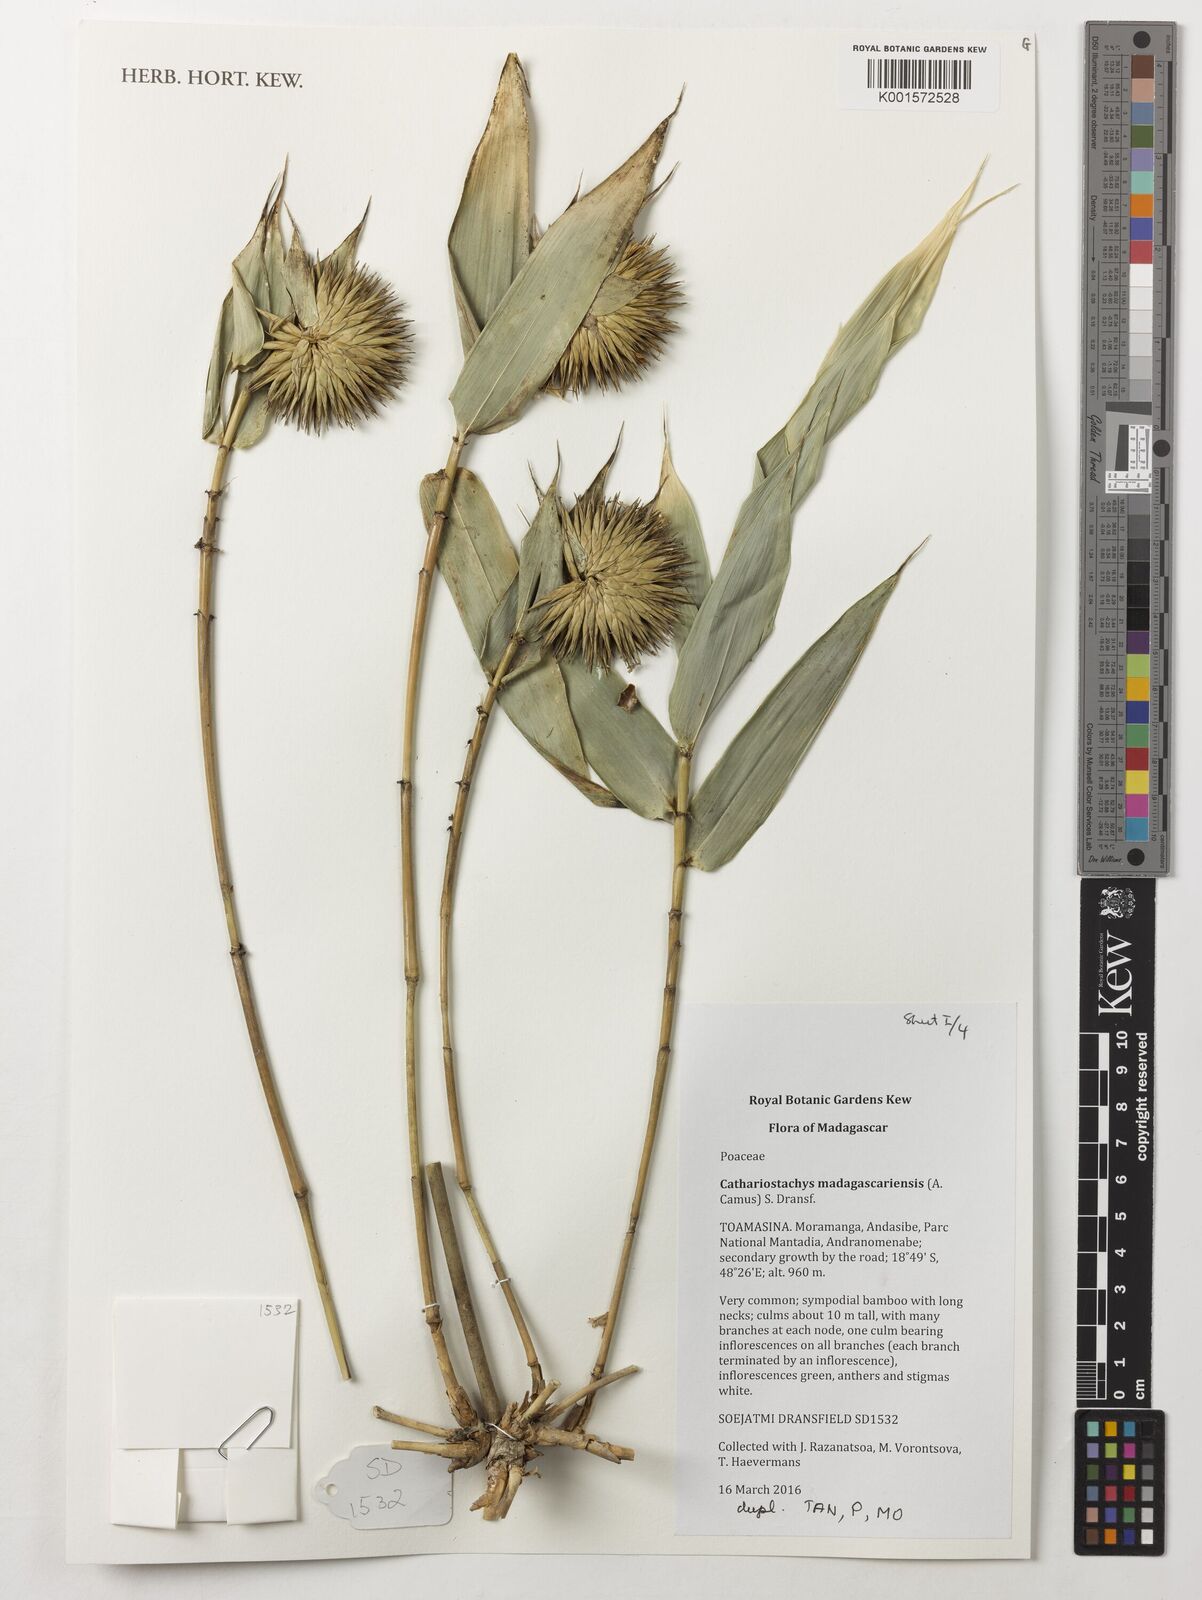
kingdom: Plantae
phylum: Tracheophyta
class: Liliopsida
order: Poales
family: Poaceae
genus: Cathariostachys
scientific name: Cathariostachys madagascariensis
